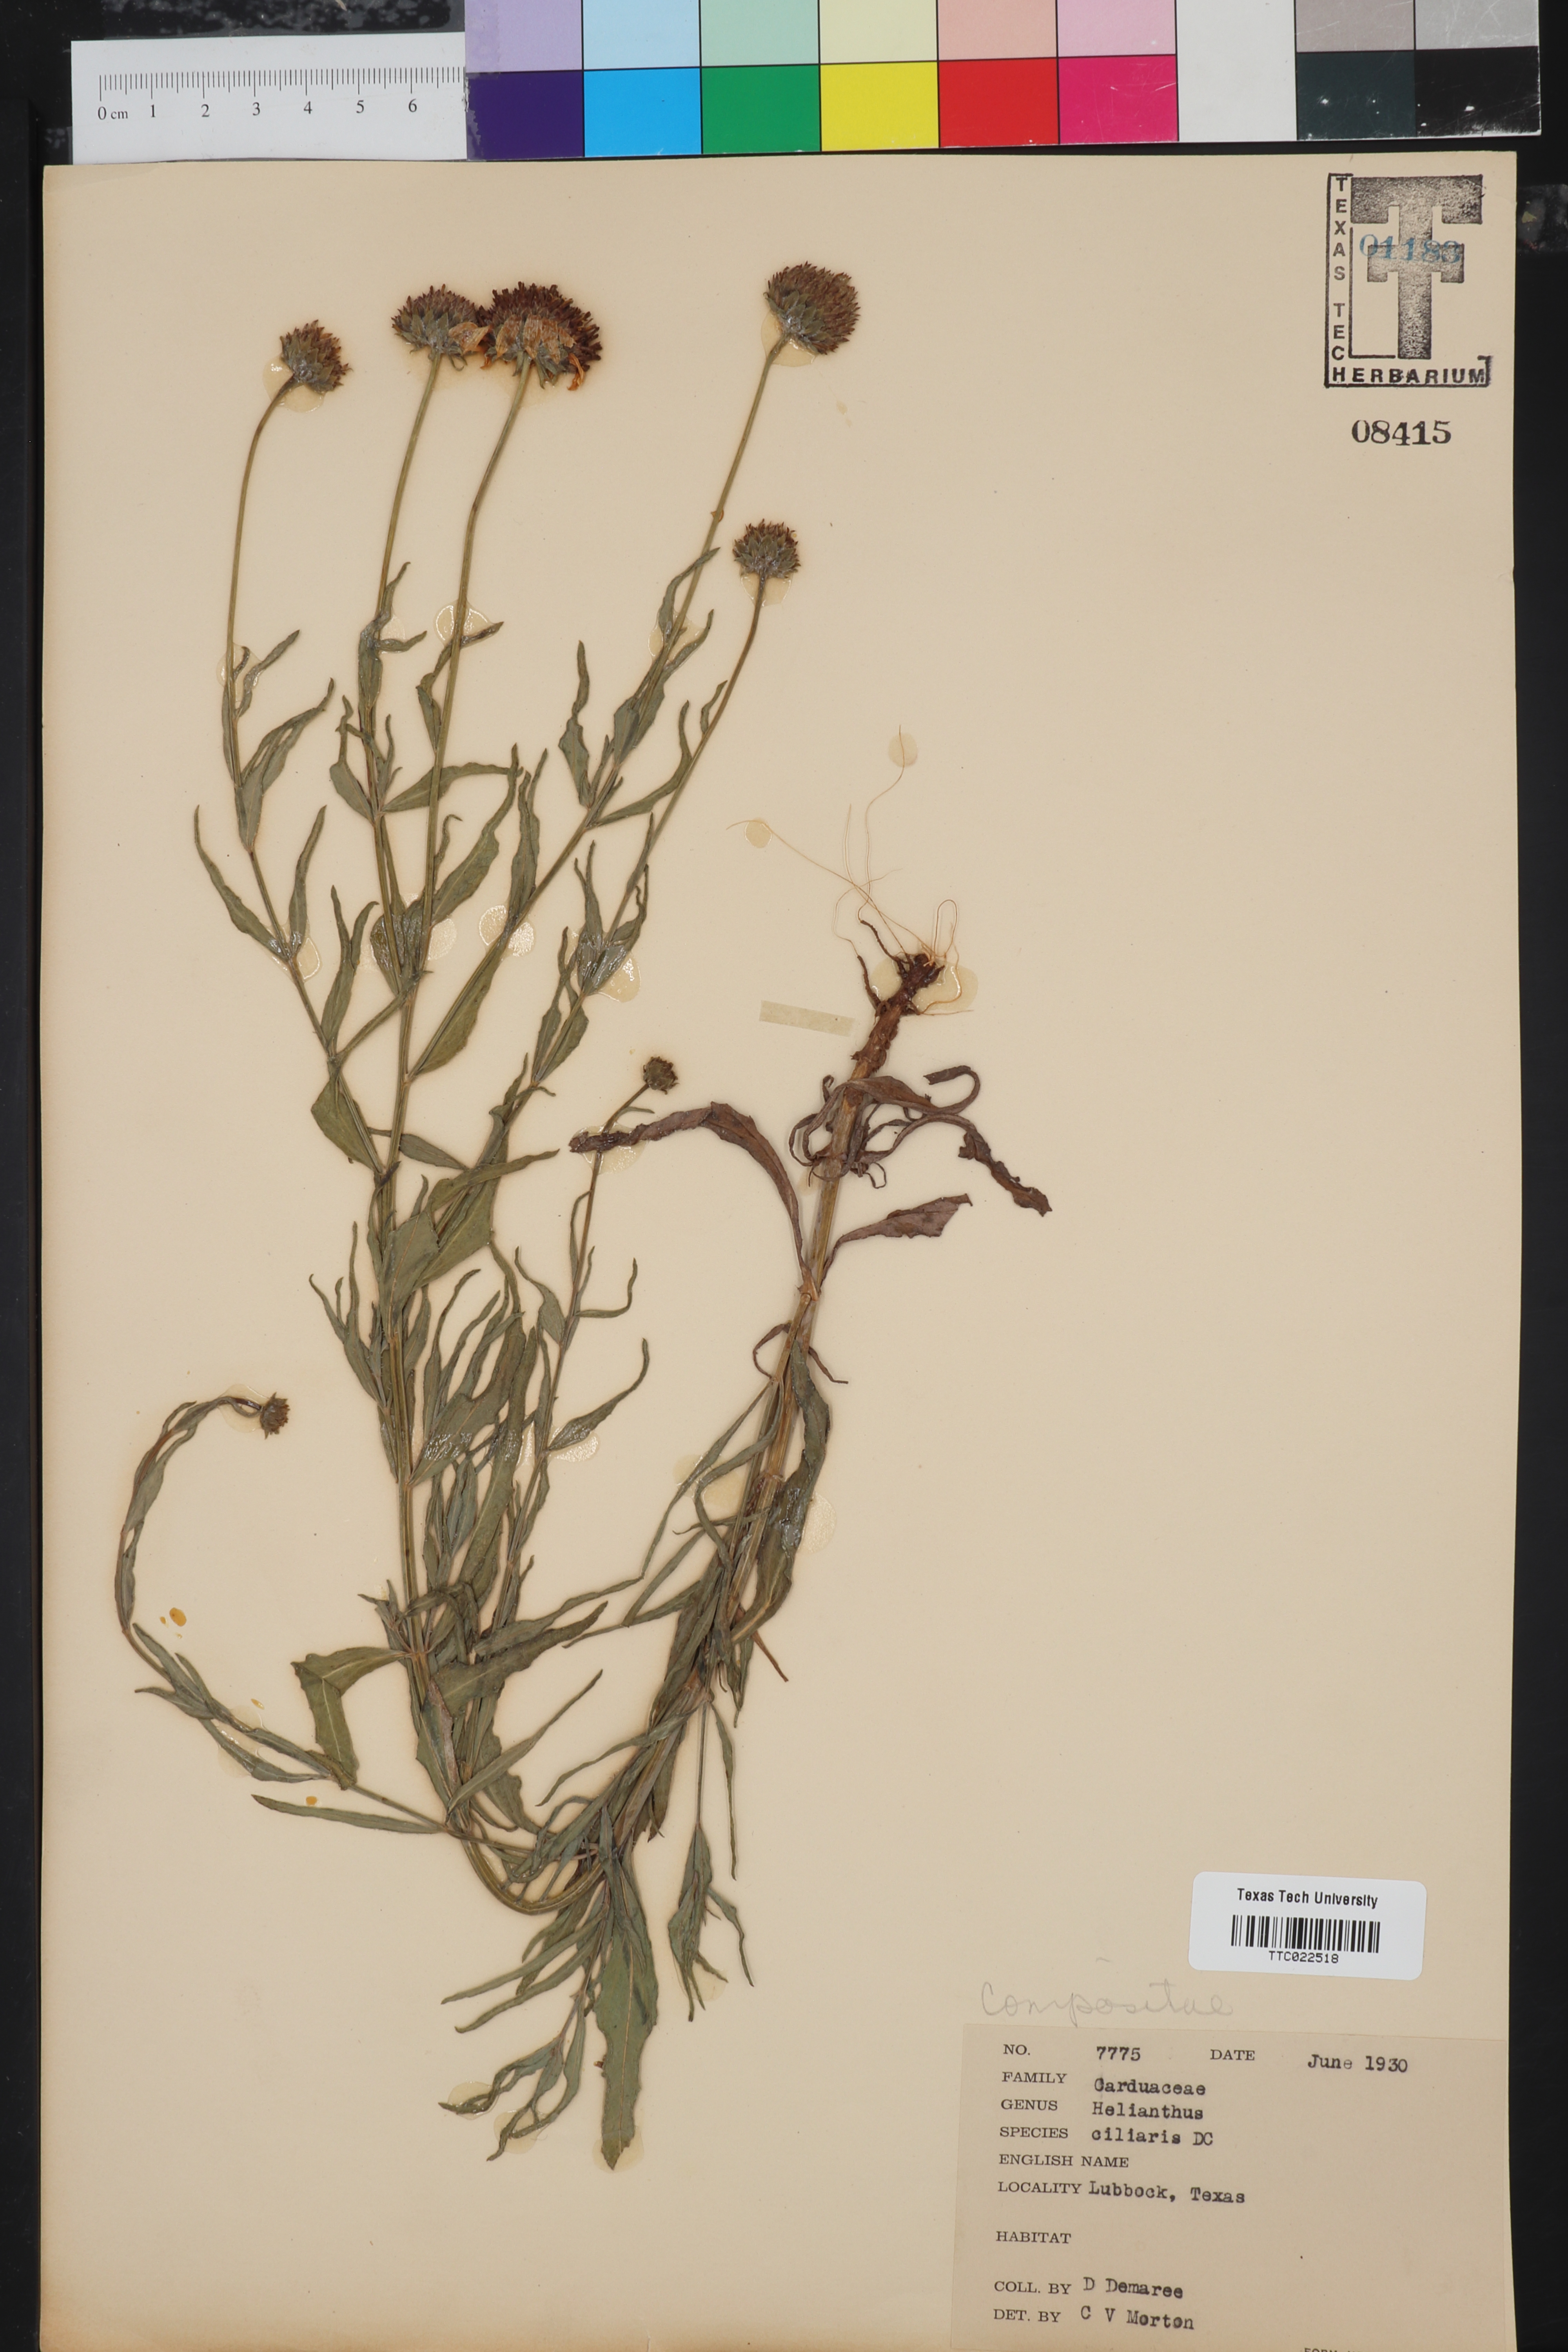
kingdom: Plantae
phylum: Tracheophyta
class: Magnoliopsida
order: Asterales
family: Asteraceae
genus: Helianthus
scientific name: Helianthus ciliaris
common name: Texas blueweed
